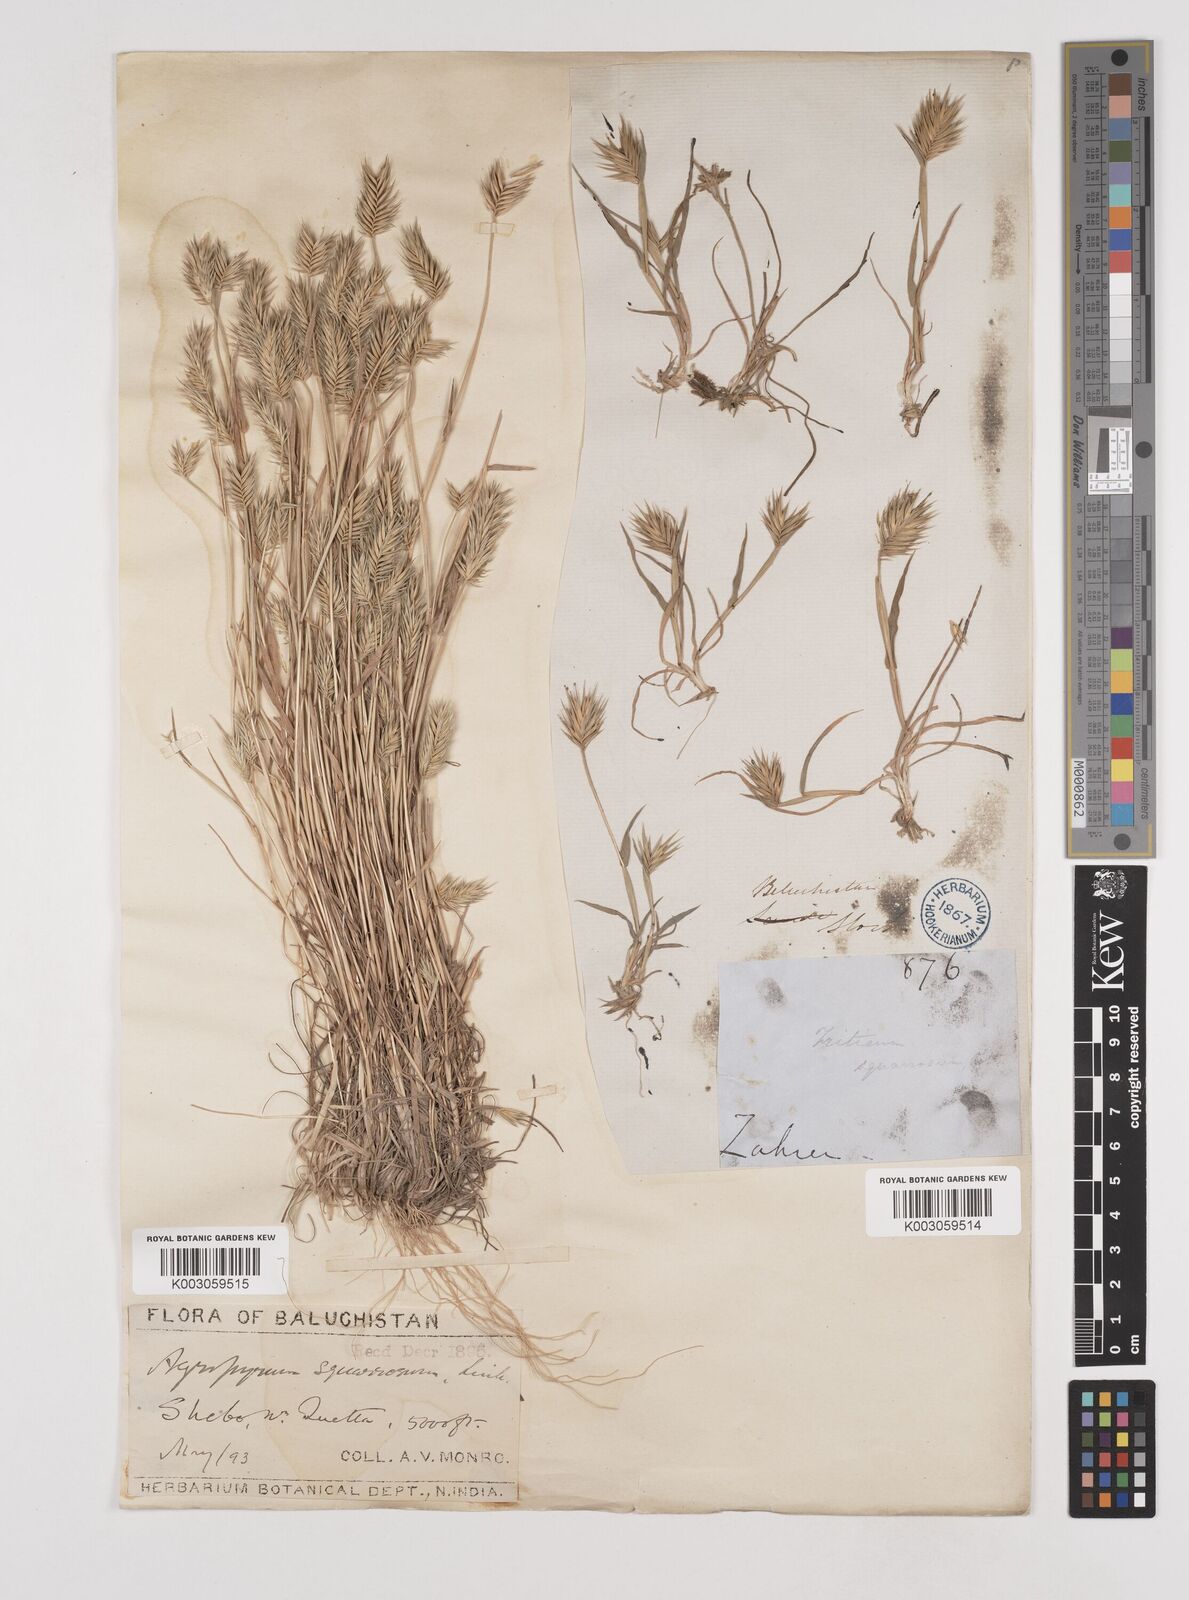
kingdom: Plantae
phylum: Tracheophyta
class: Liliopsida
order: Poales
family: Poaceae
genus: Eremopyrum
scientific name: Eremopyrum bonaepartis
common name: Tapertip false wheatgrass
